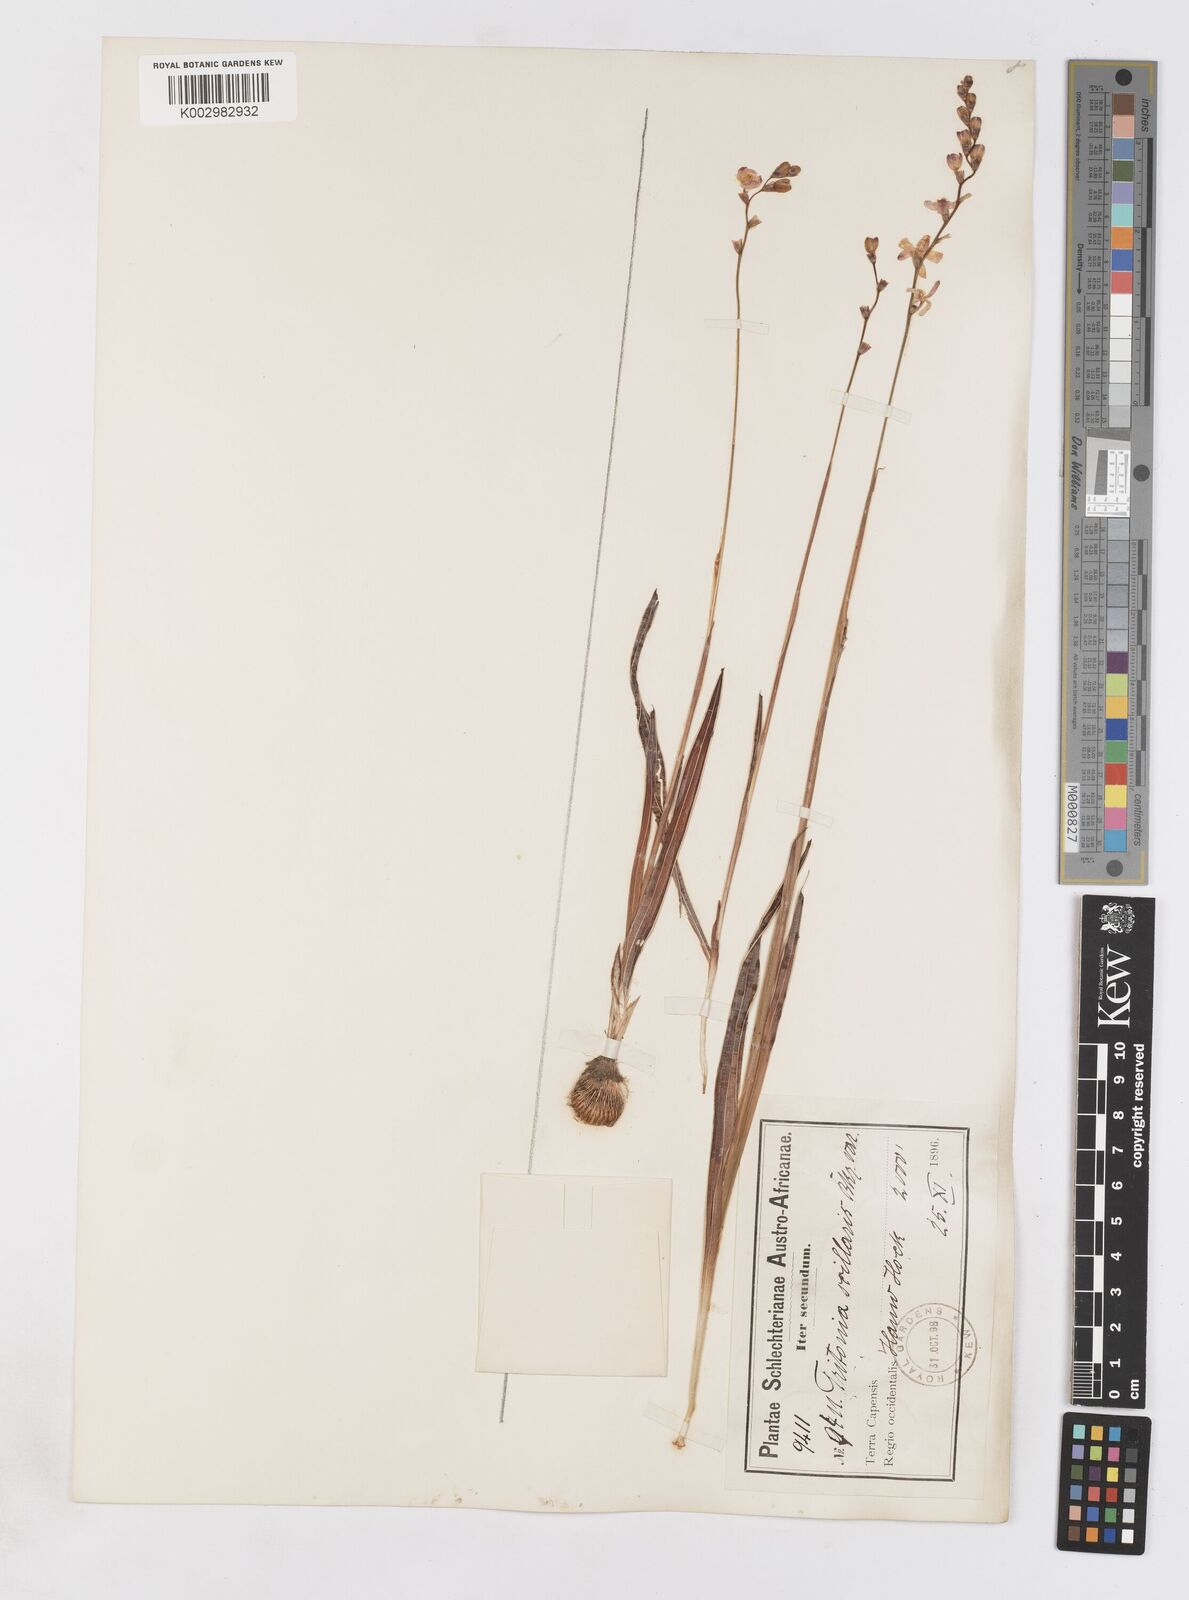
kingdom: Plantae
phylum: Tracheophyta
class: Liliopsida
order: Asparagales
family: Iridaceae
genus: Ixia
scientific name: Ixia scillaris
